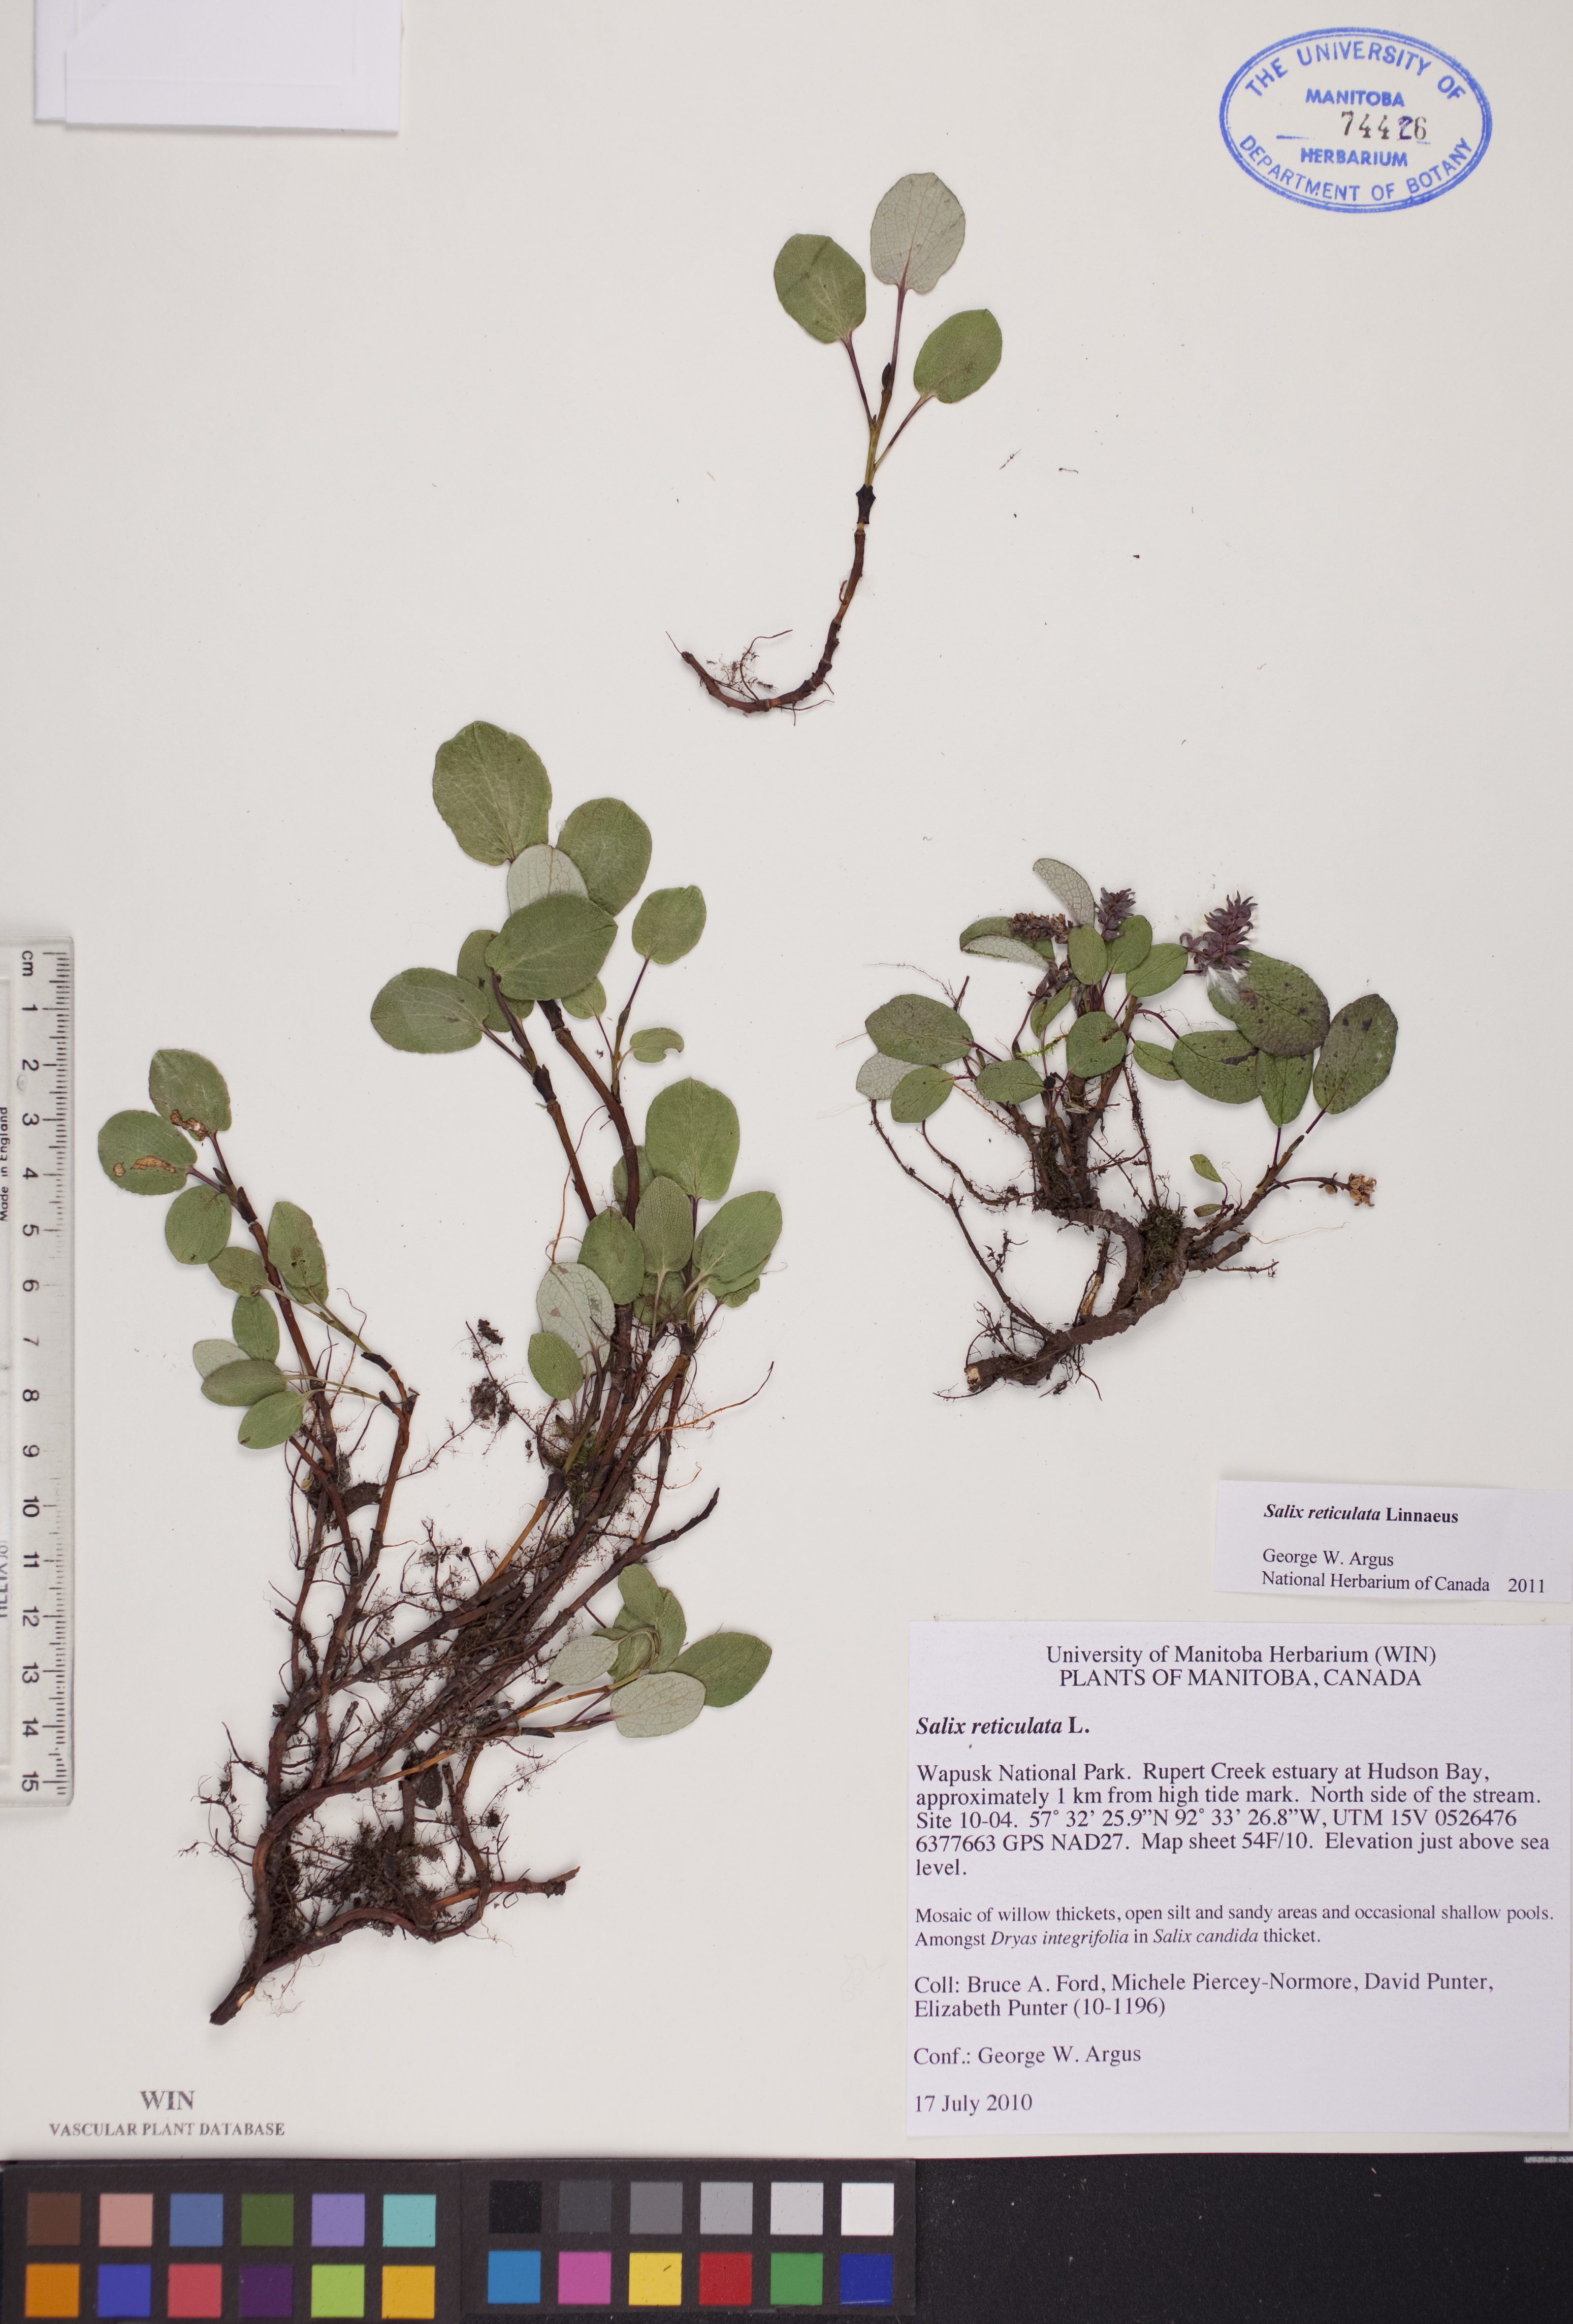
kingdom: Plantae
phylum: Tracheophyta
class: Magnoliopsida
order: Malpighiales
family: Salicaceae
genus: Salix
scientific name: Salix reticulata
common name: Net-leaved willow
